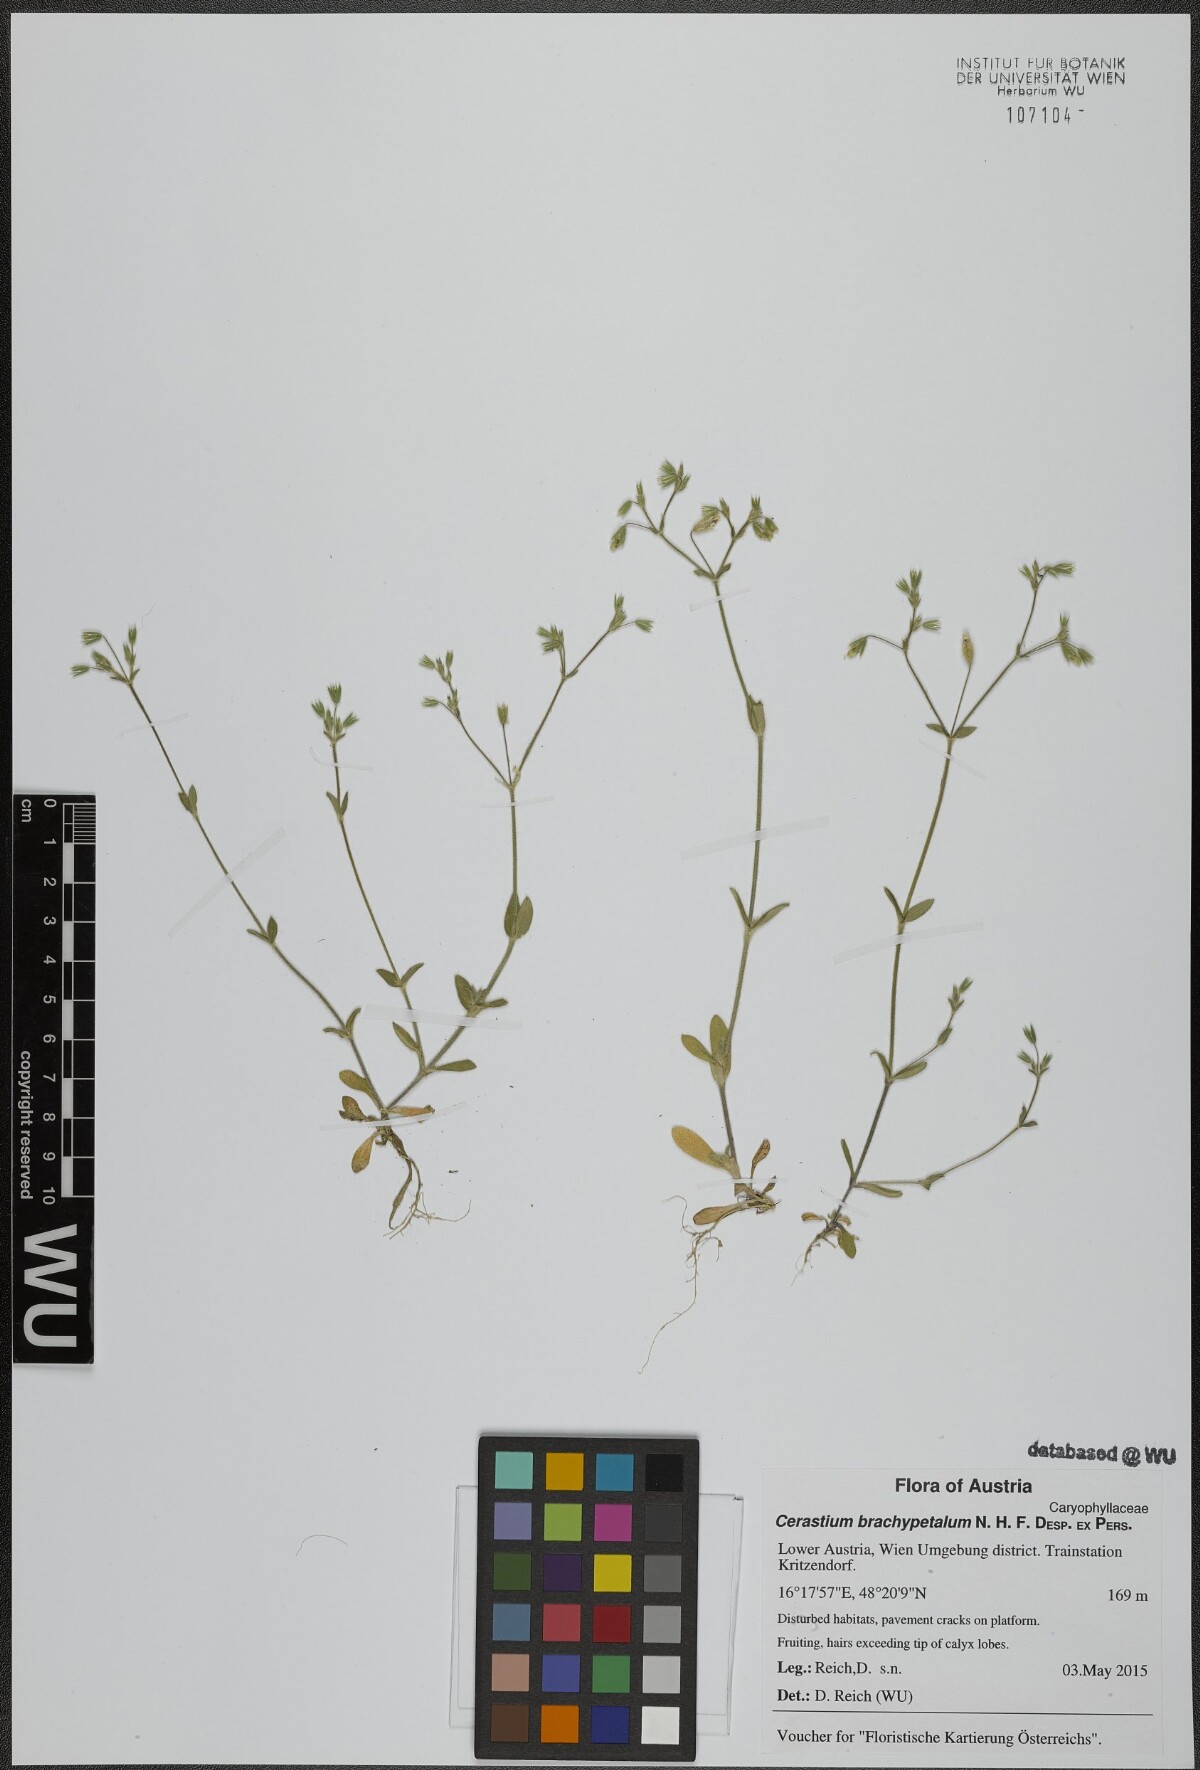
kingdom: Plantae
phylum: Tracheophyta
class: Magnoliopsida
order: Caryophyllales
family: Caryophyllaceae
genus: Cerastium
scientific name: Cerastium brachypetalum
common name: Grey mouse-ear
